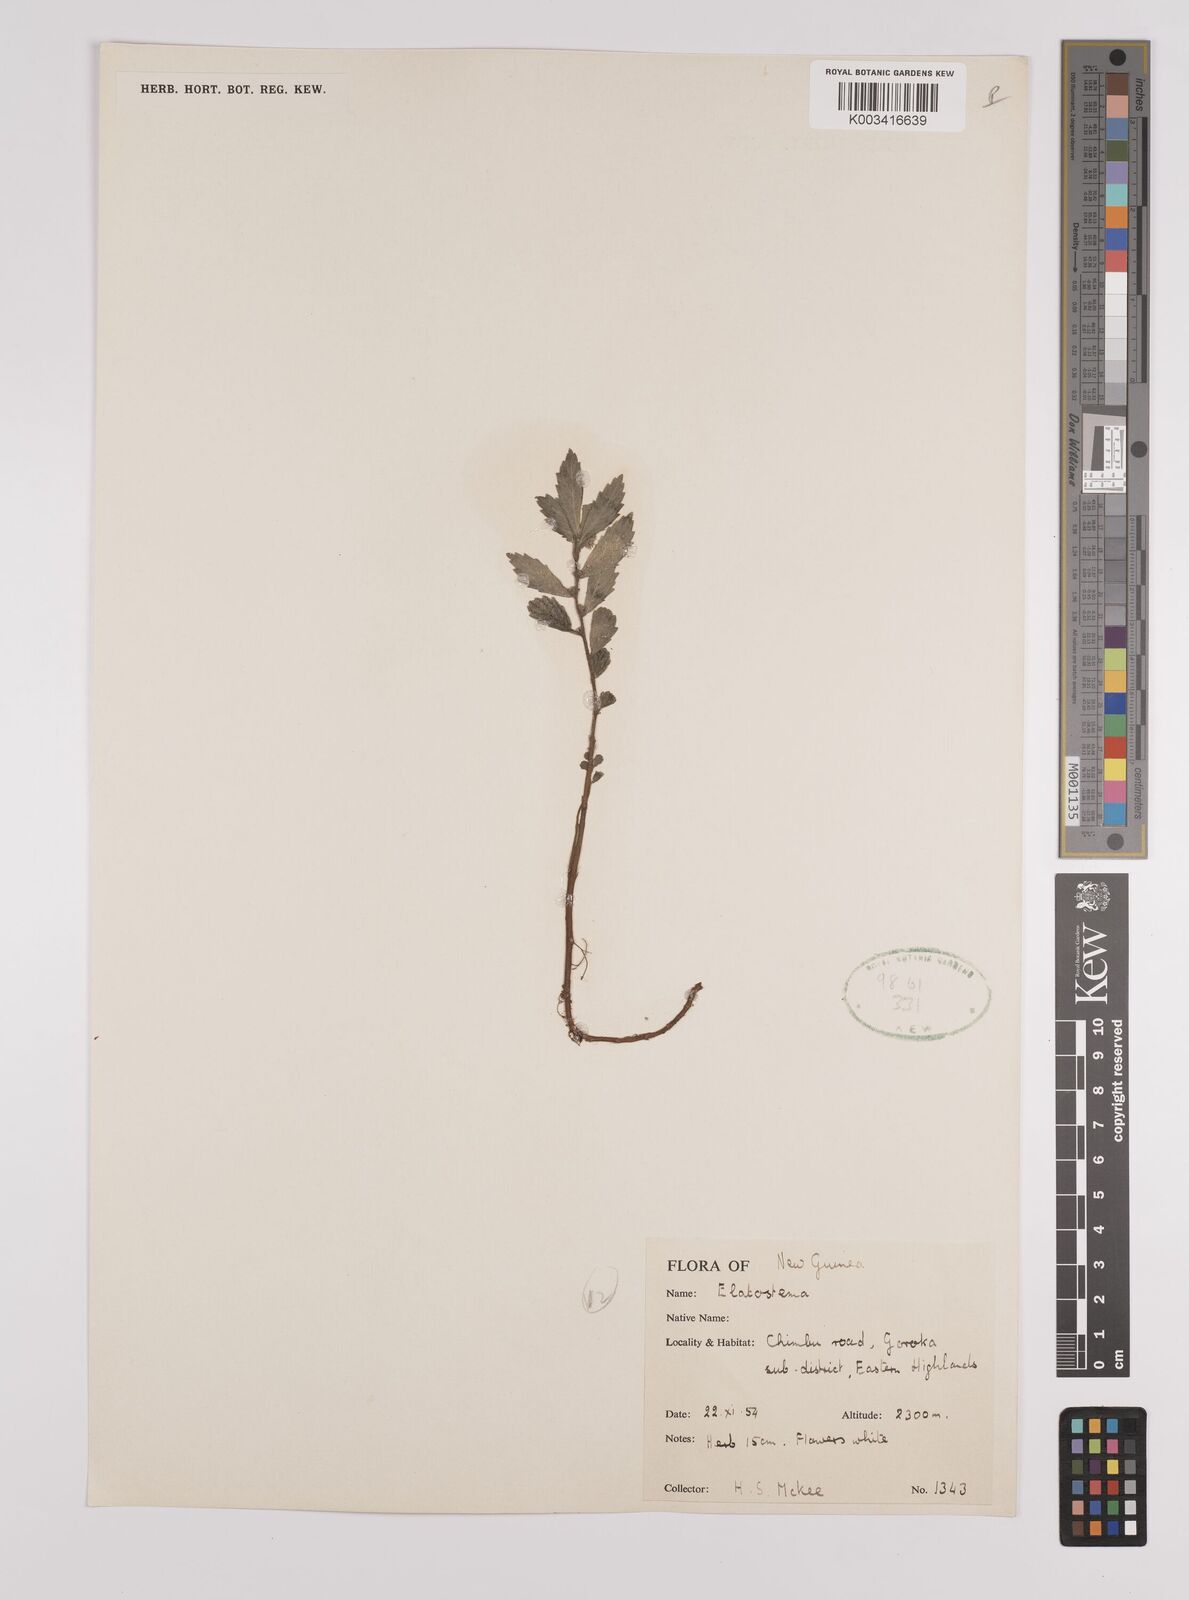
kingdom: Plantae
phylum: Tracheophyta
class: Magnoliopsida
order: Rosales
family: Urticaceae
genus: Elatostema
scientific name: Elatostema
